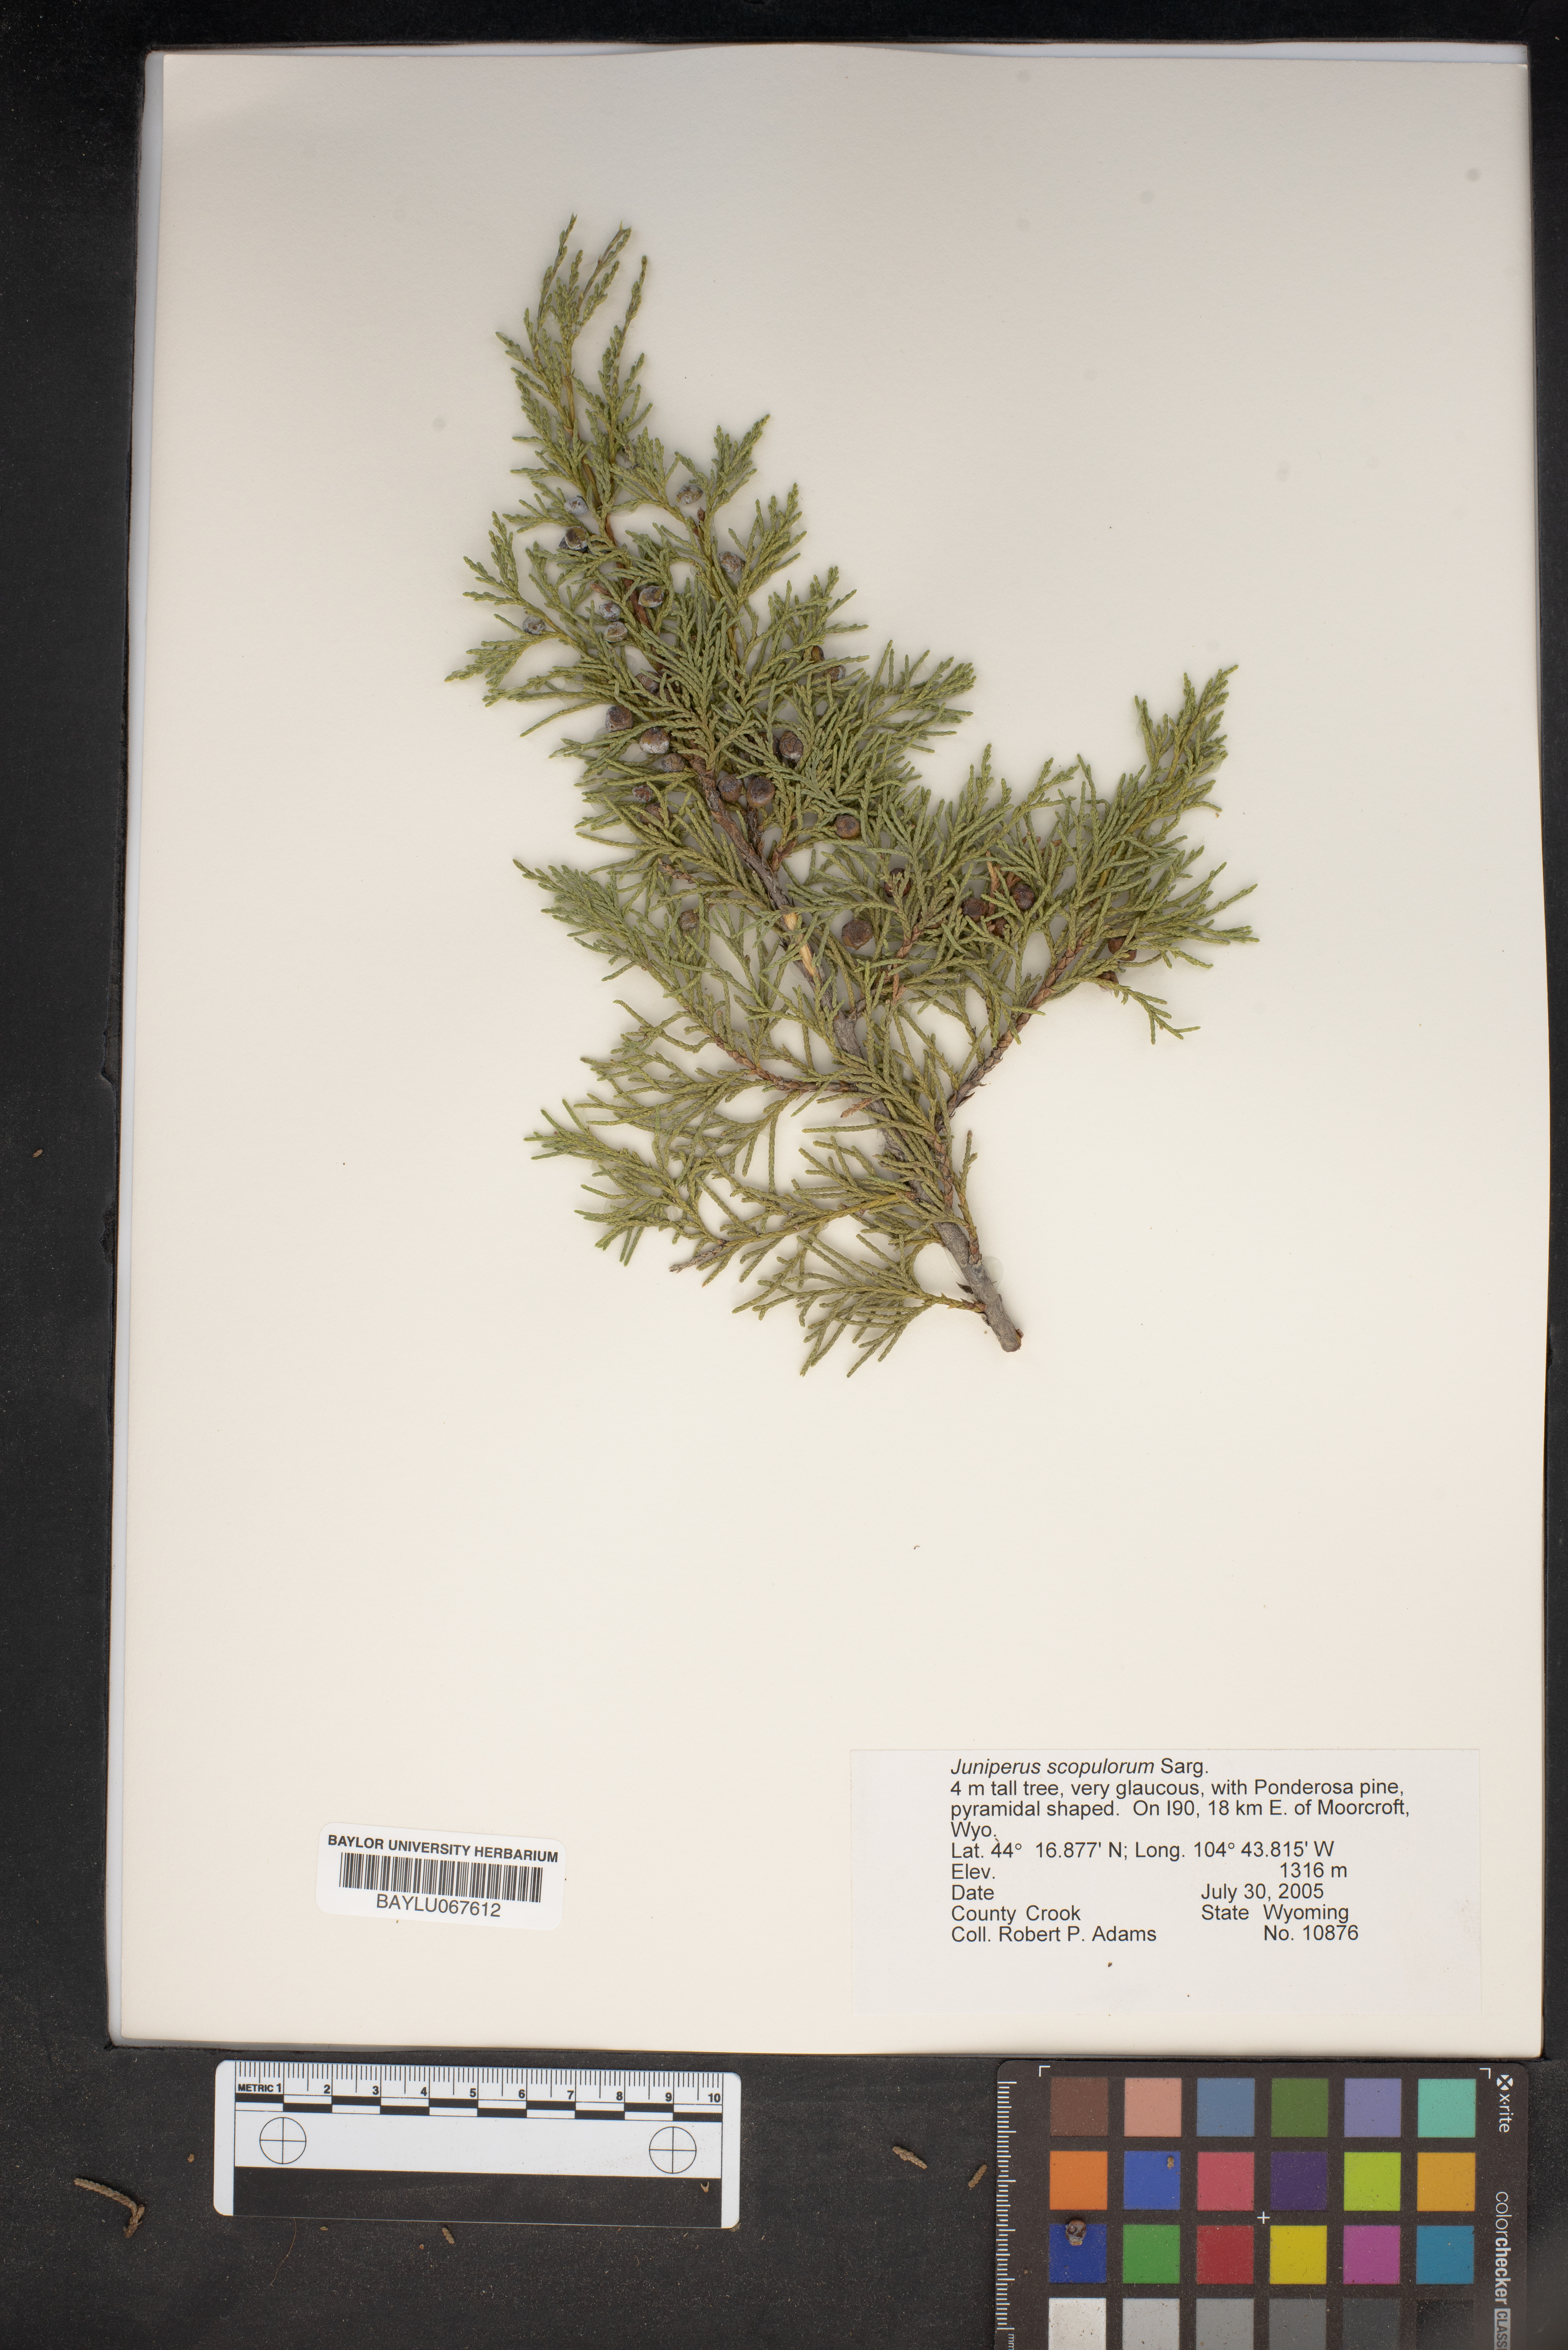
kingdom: Plantae
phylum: Tracheophyta
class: Pinopsida
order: Pinales
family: Cupressaceae
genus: Juniperus
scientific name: Juniperus scopulorum
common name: Rocky mountain juniper
